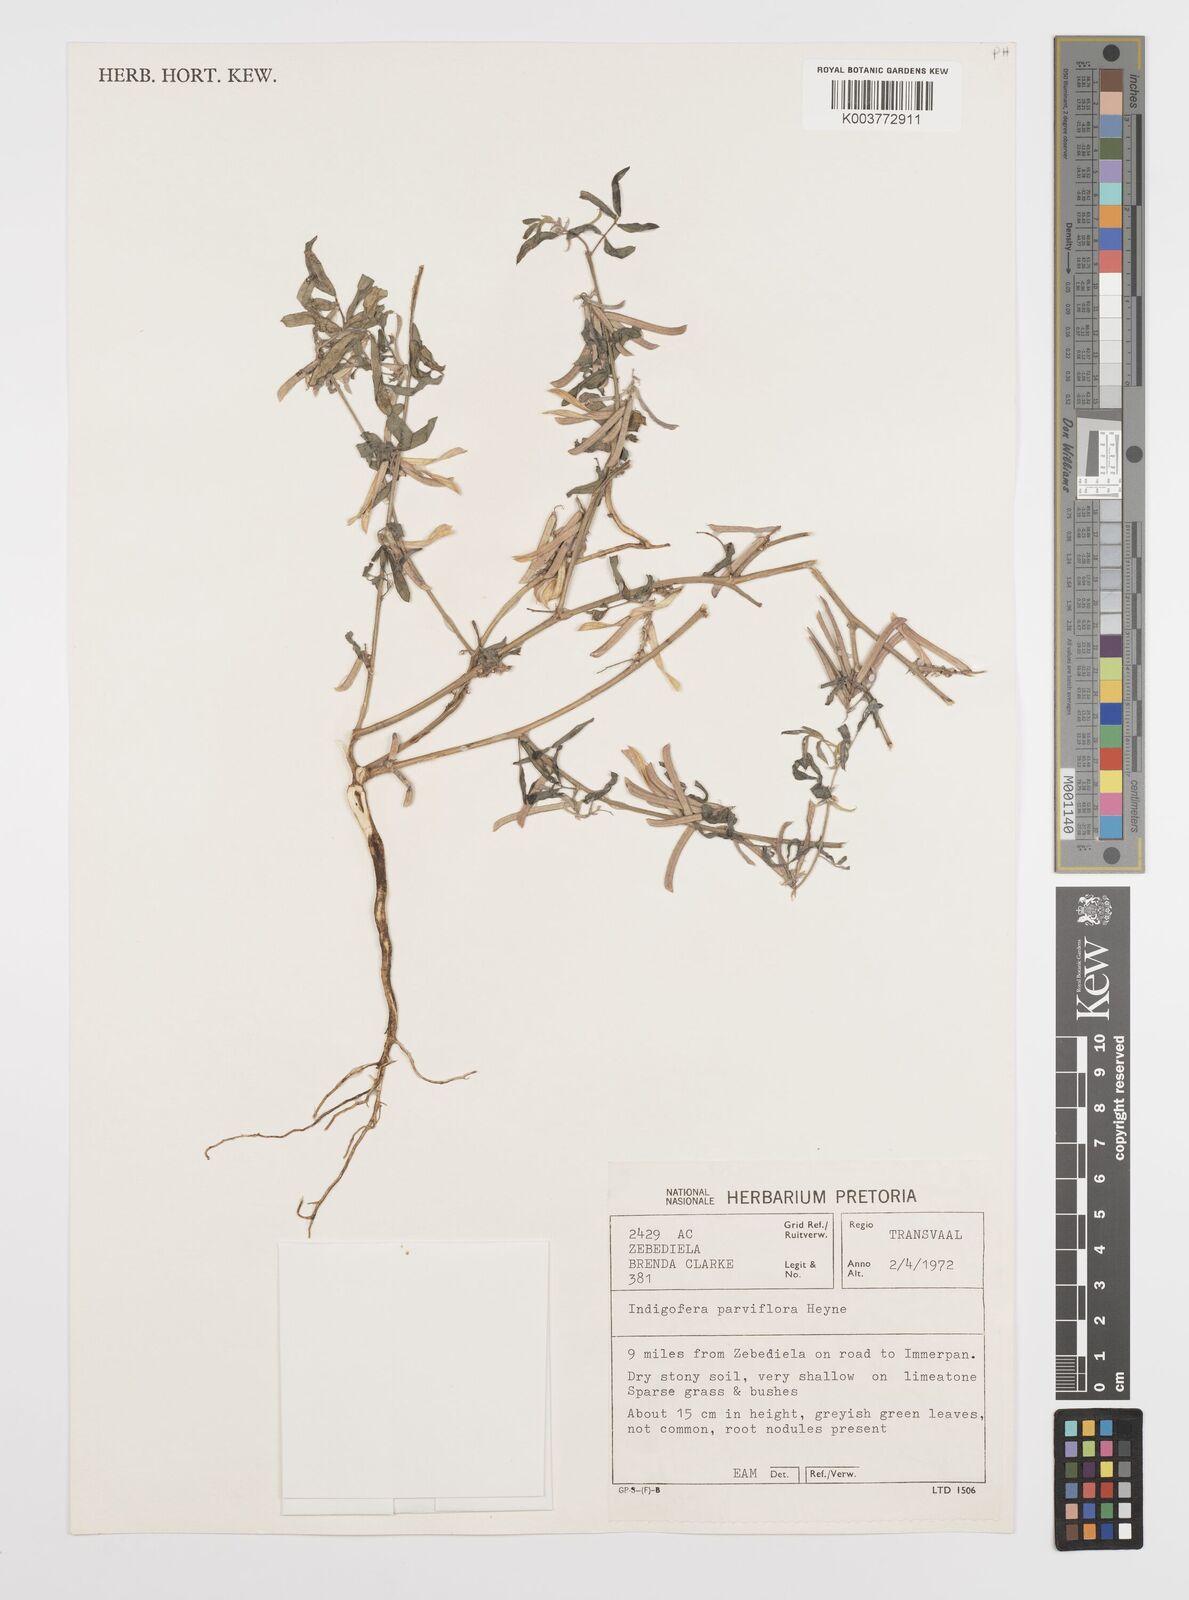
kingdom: Plantae
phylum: Tracheophyta
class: Magnoliopsida
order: Fabales
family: Fabaceae
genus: Indigofera
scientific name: Indigofera charlieriana
